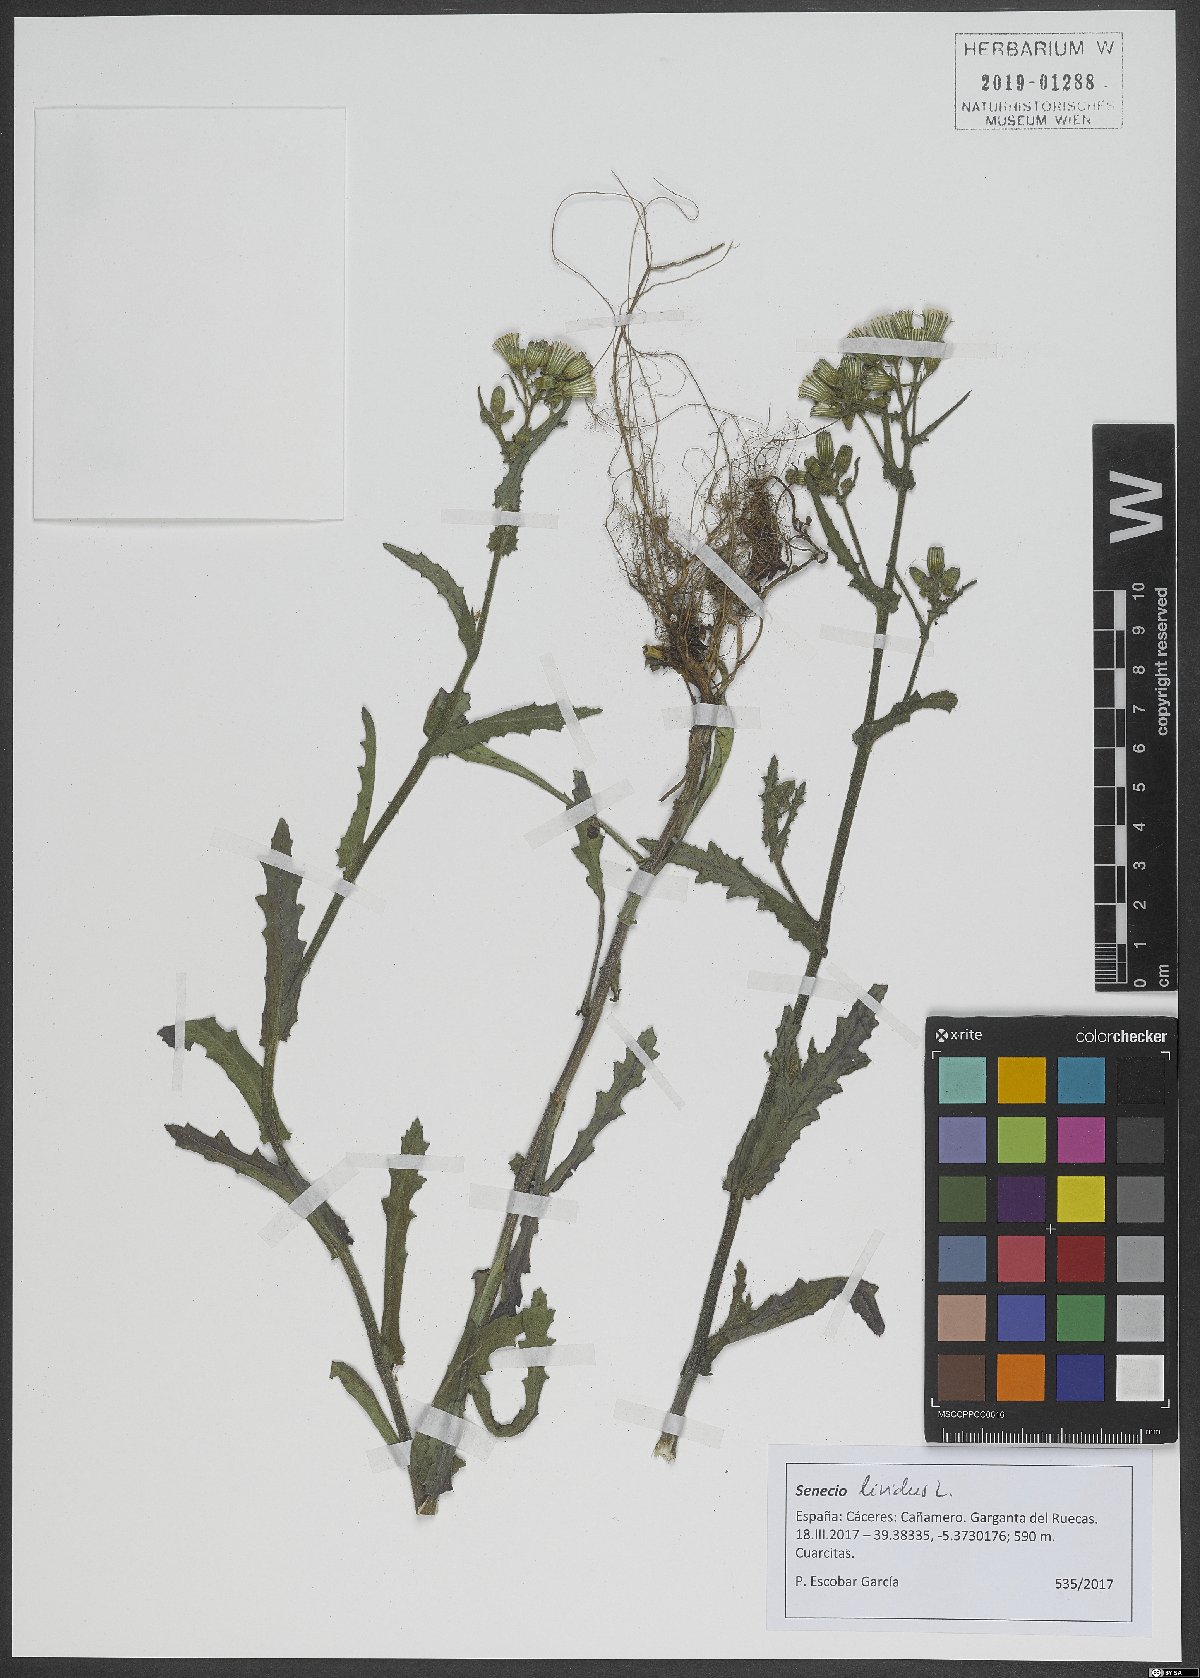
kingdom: Plantae
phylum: Tracheophyta
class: Magnoliopsida
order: Asterales
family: Asteraceae
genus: Senecio
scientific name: Senecio lividus
